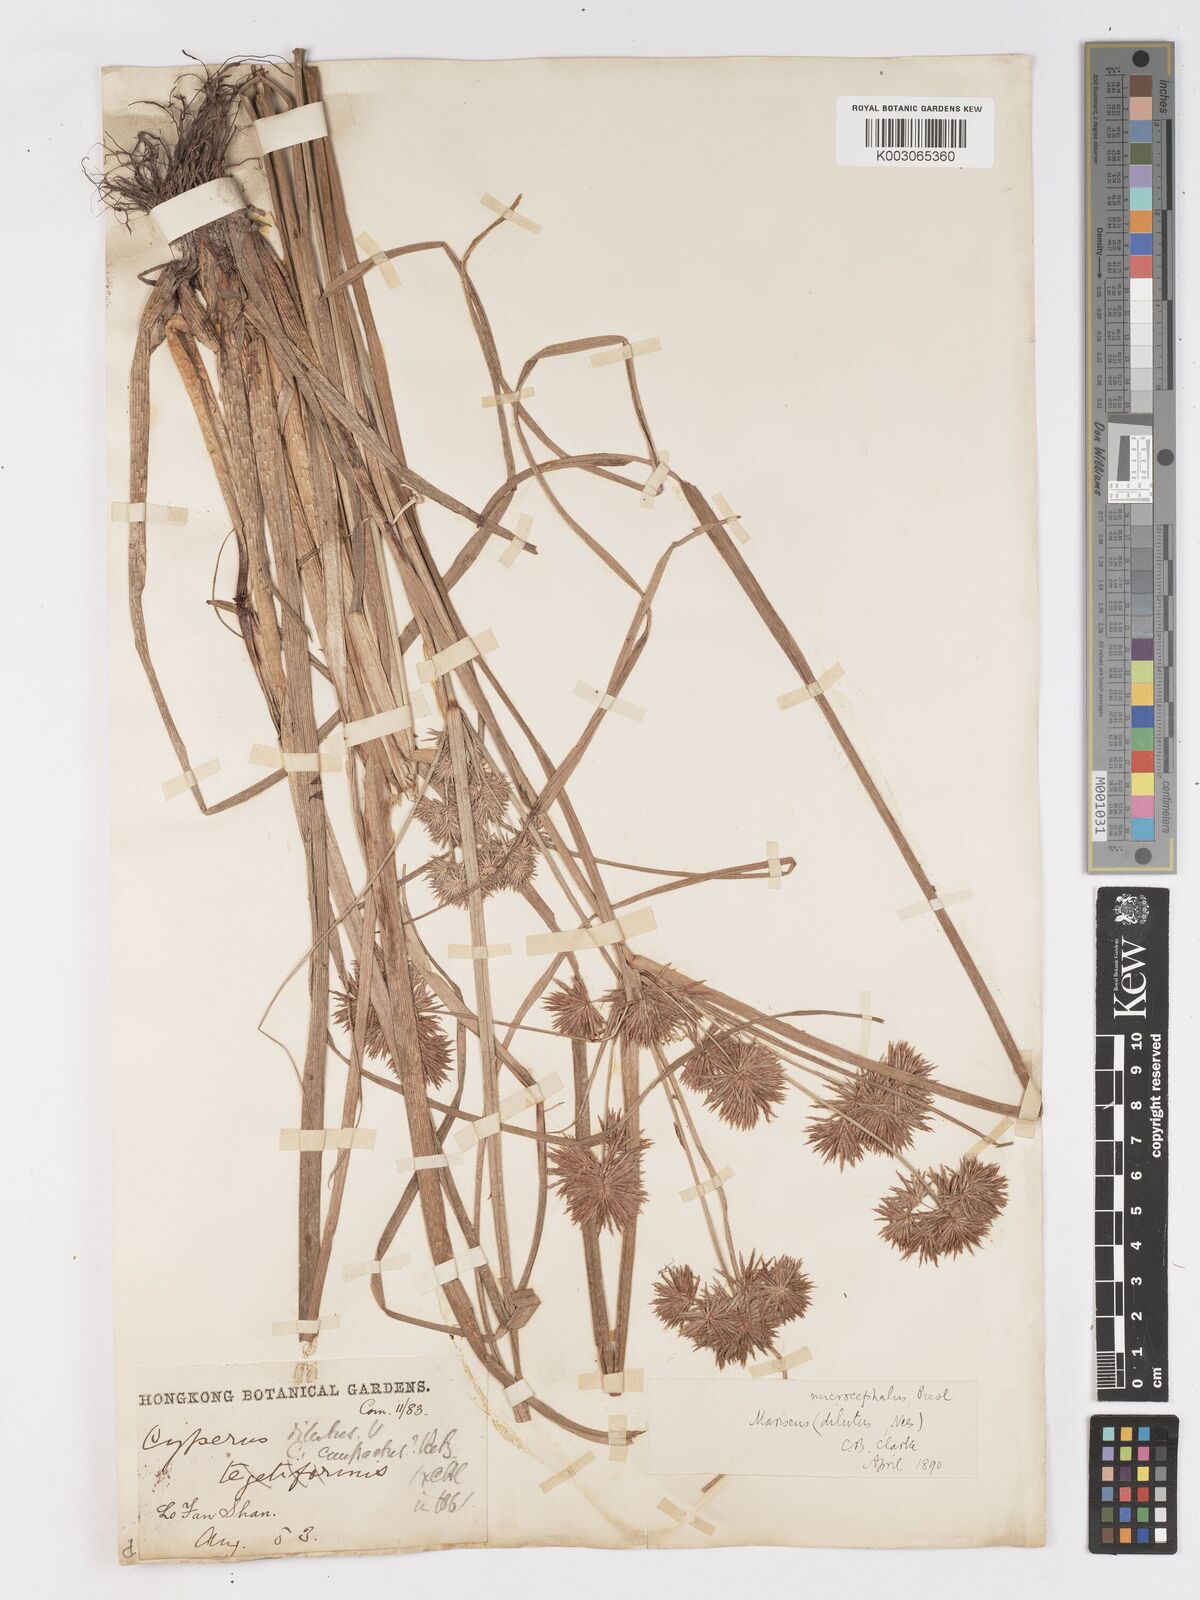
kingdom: Plantae
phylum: Tracheophyta
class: Liliopsida
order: Poales
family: Cyperaceae
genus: Cyperus
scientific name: Cyperus compactus
